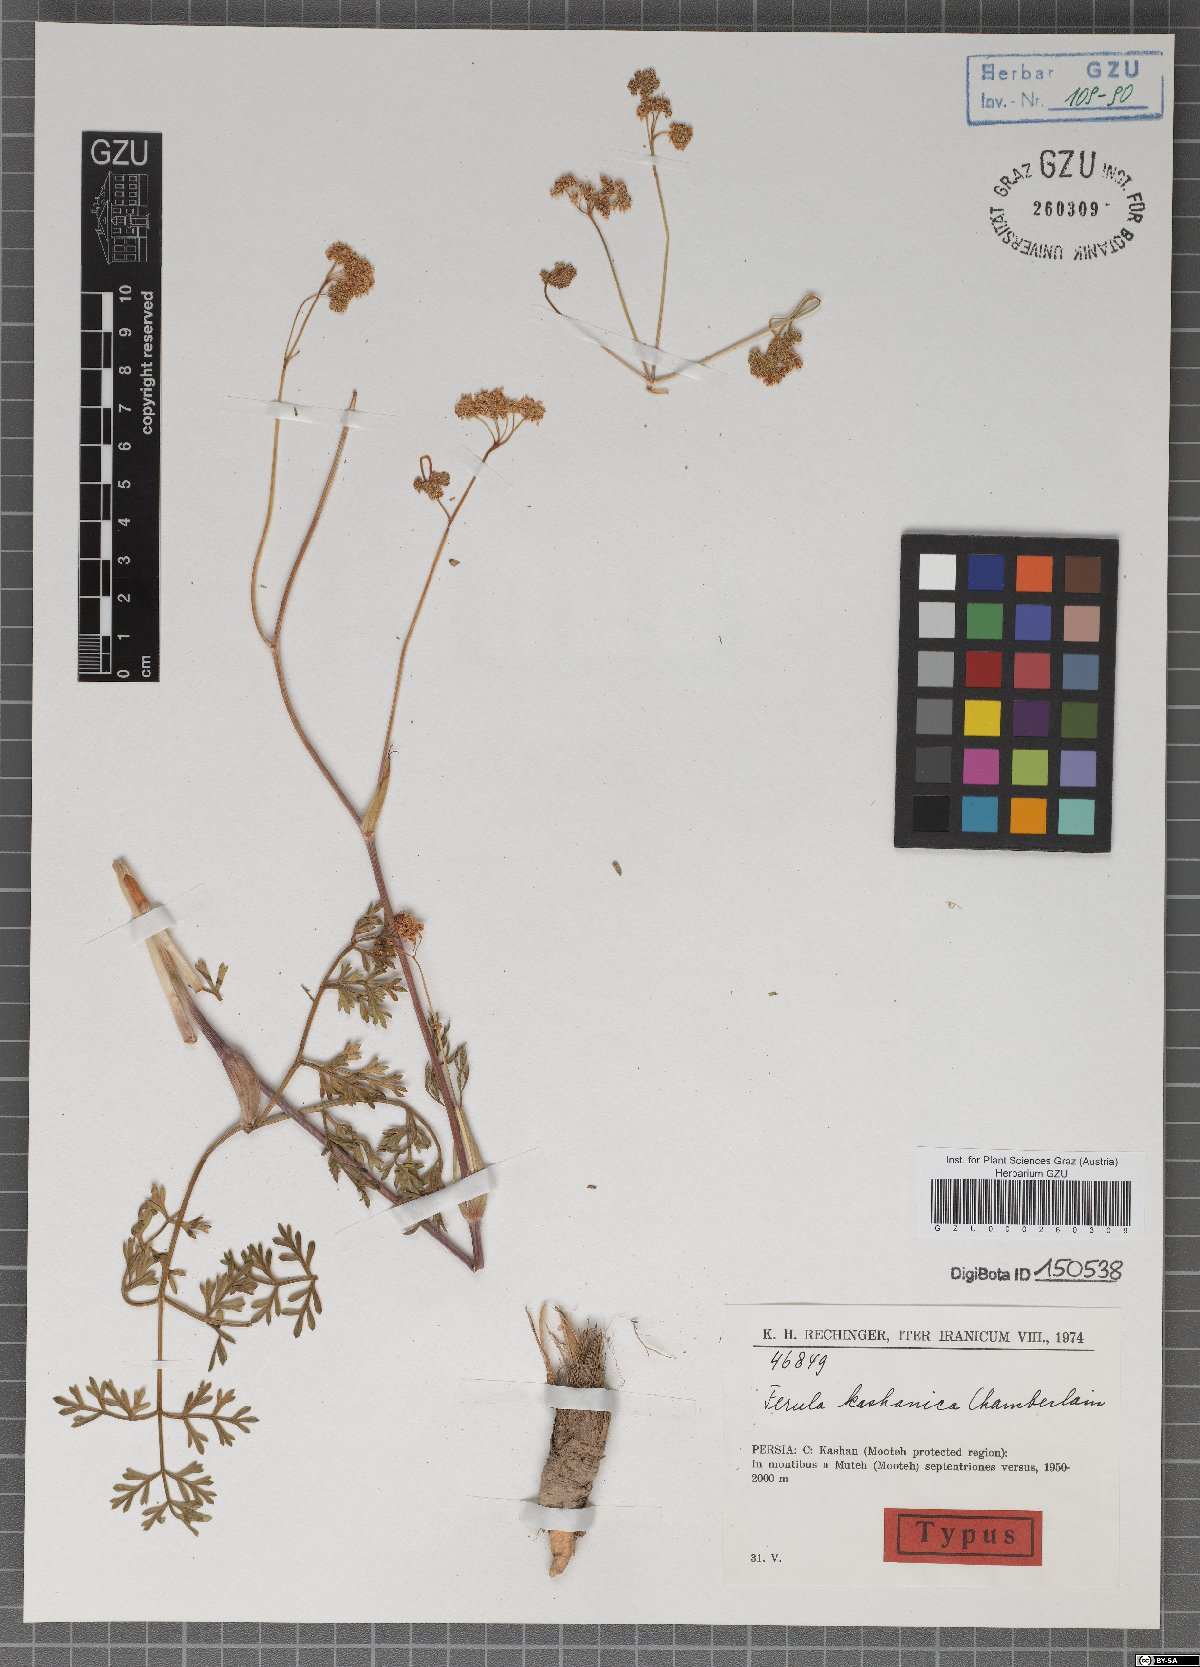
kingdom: Plantae
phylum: Tracheophyta
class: Magnoliopsida
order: Apiales
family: Apiaceae
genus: Ferula
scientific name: Ferula kashanica
